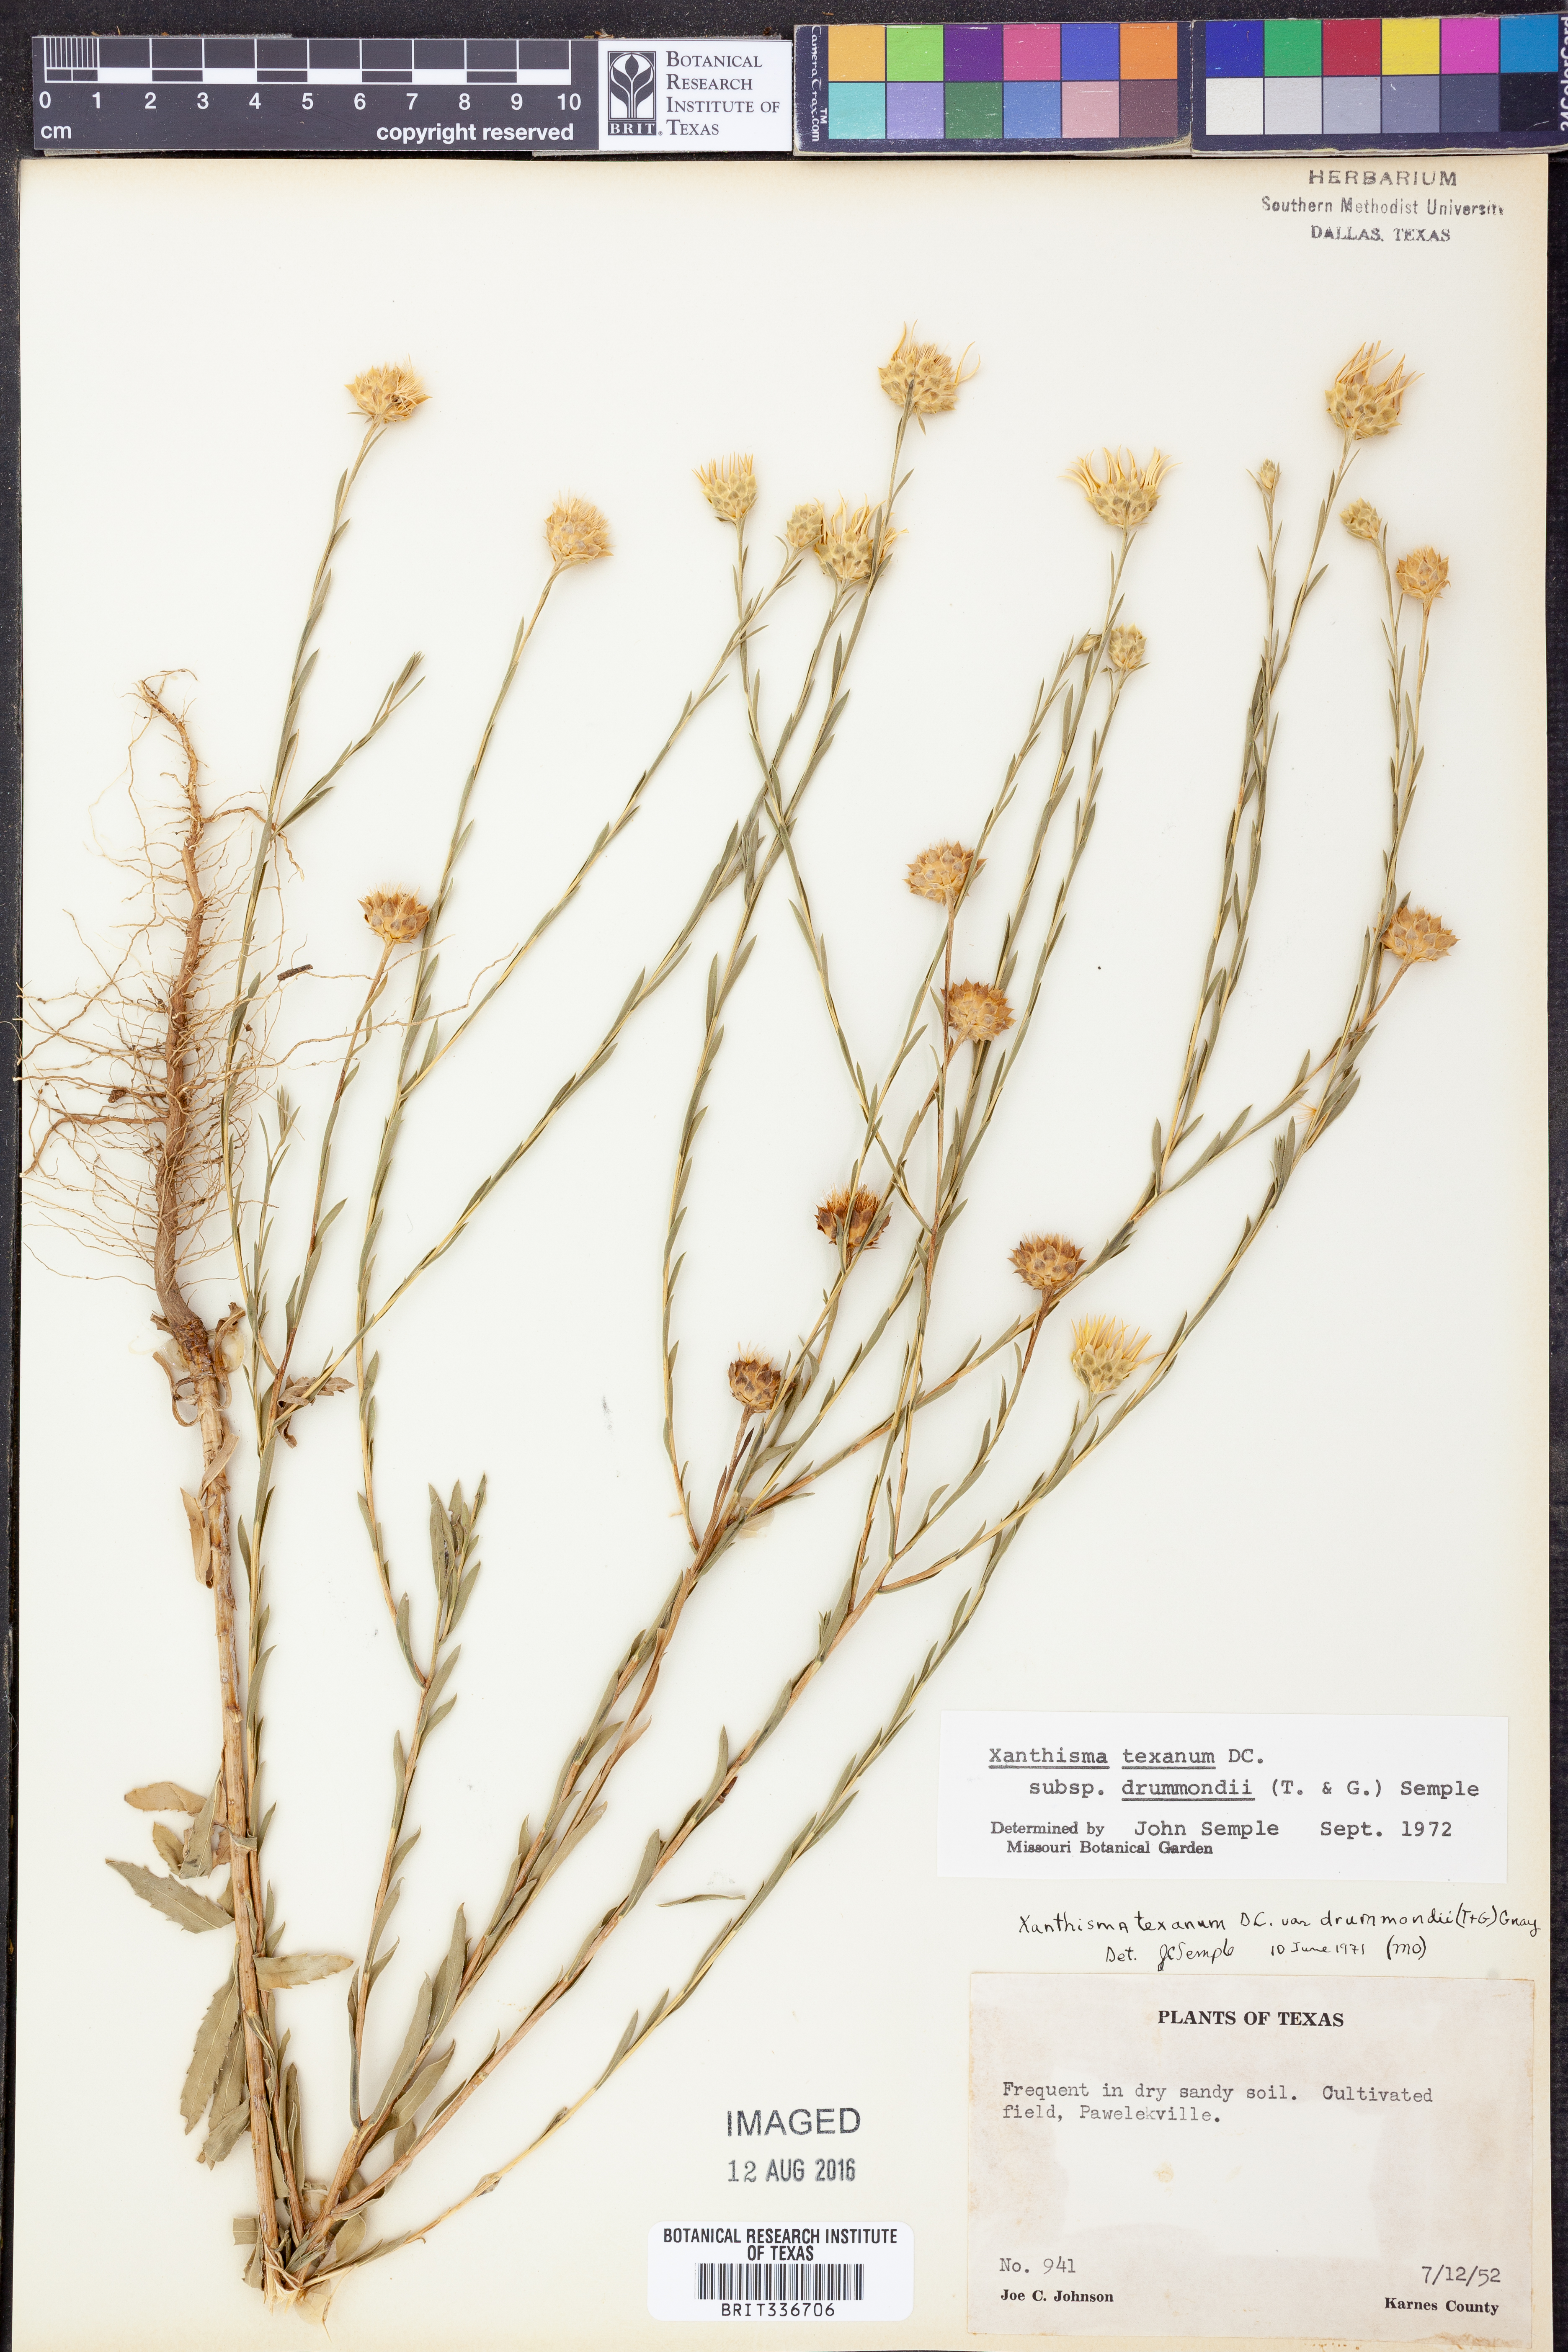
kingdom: Plantae
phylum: Tracheophyta
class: Magnoliopsida
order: Asterales
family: Asteraceae
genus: Xanthisma
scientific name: Xanthisma texanum
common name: Texas sleepy daisy
